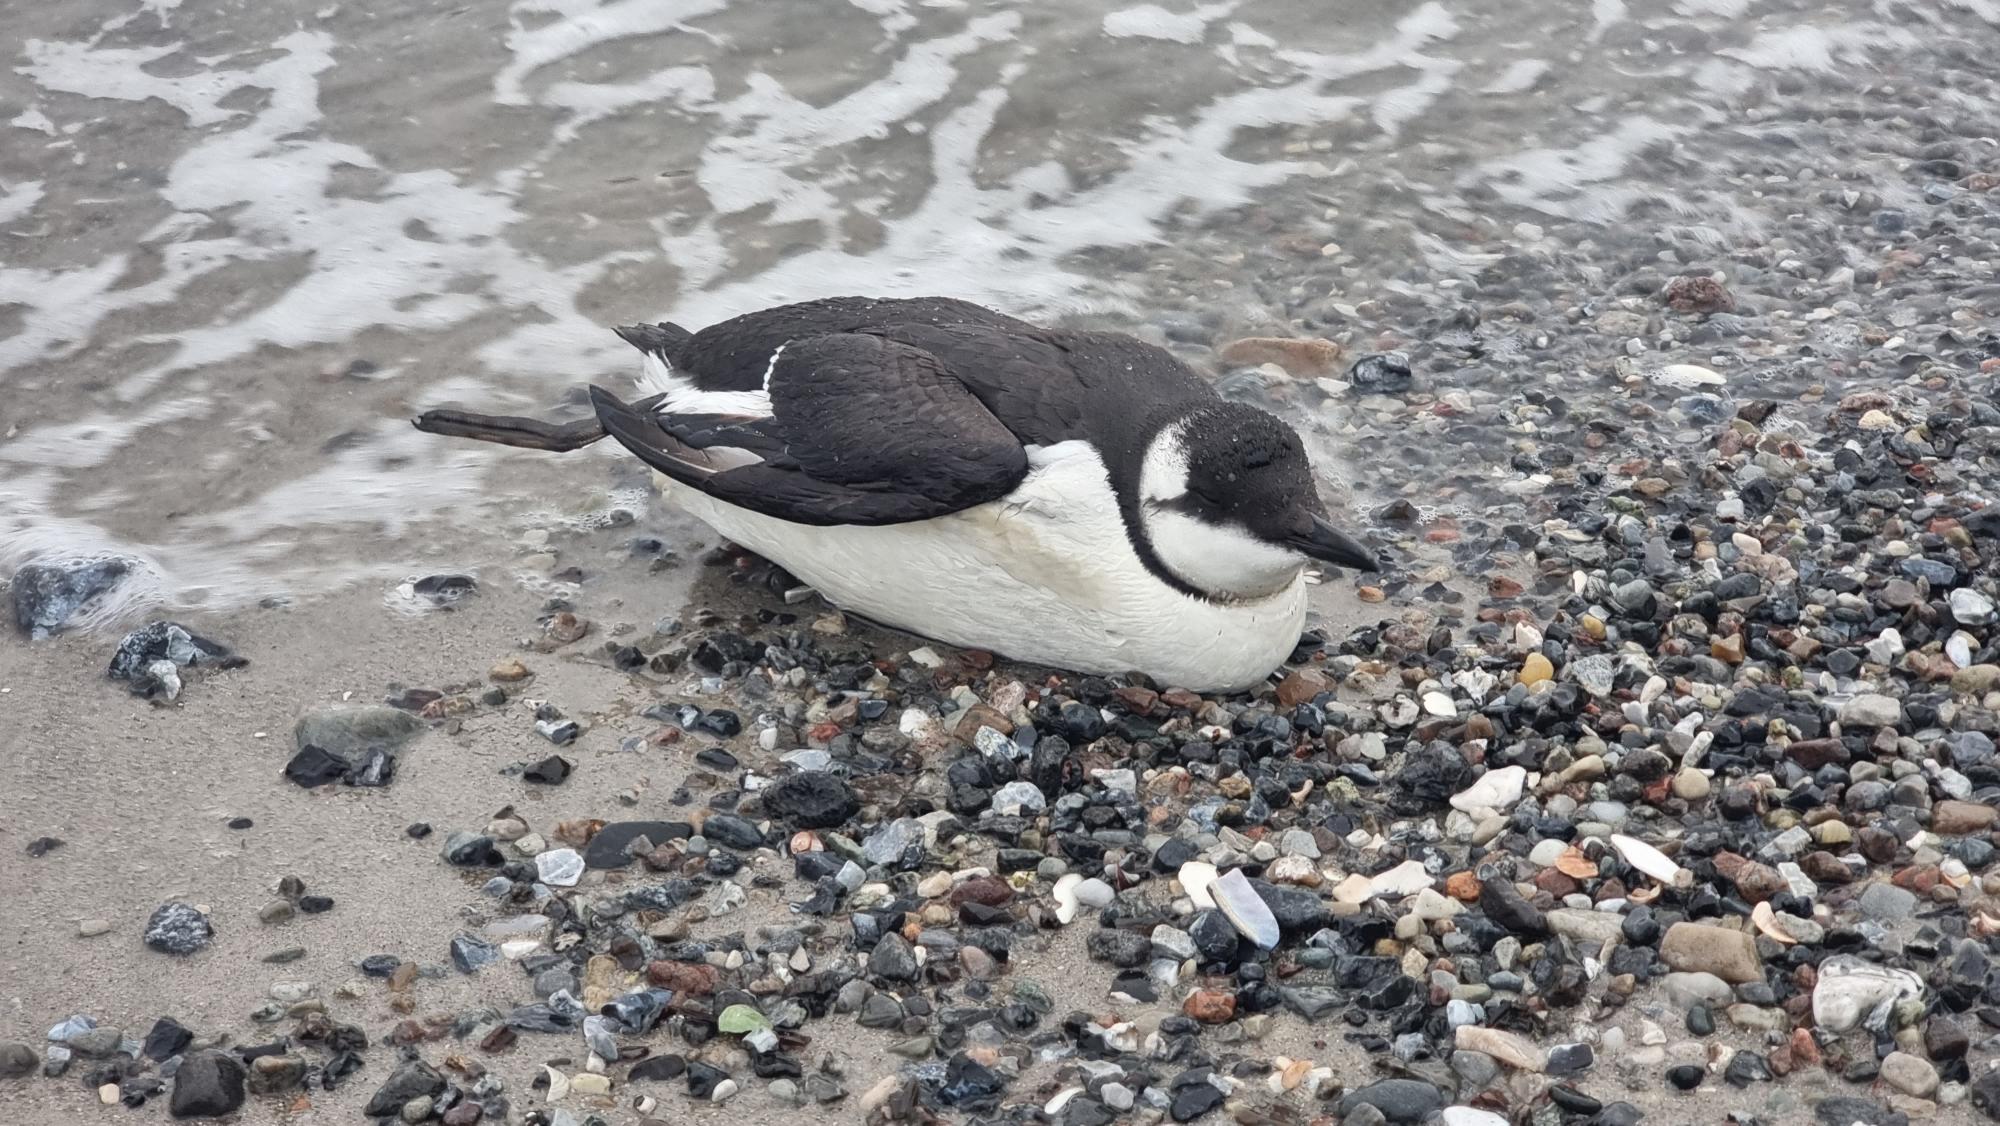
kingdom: Animalia
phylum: Chordata
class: Aves
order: Charadriiformes
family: Alcidae
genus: Uria
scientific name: Uria aalge
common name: Lomvie
